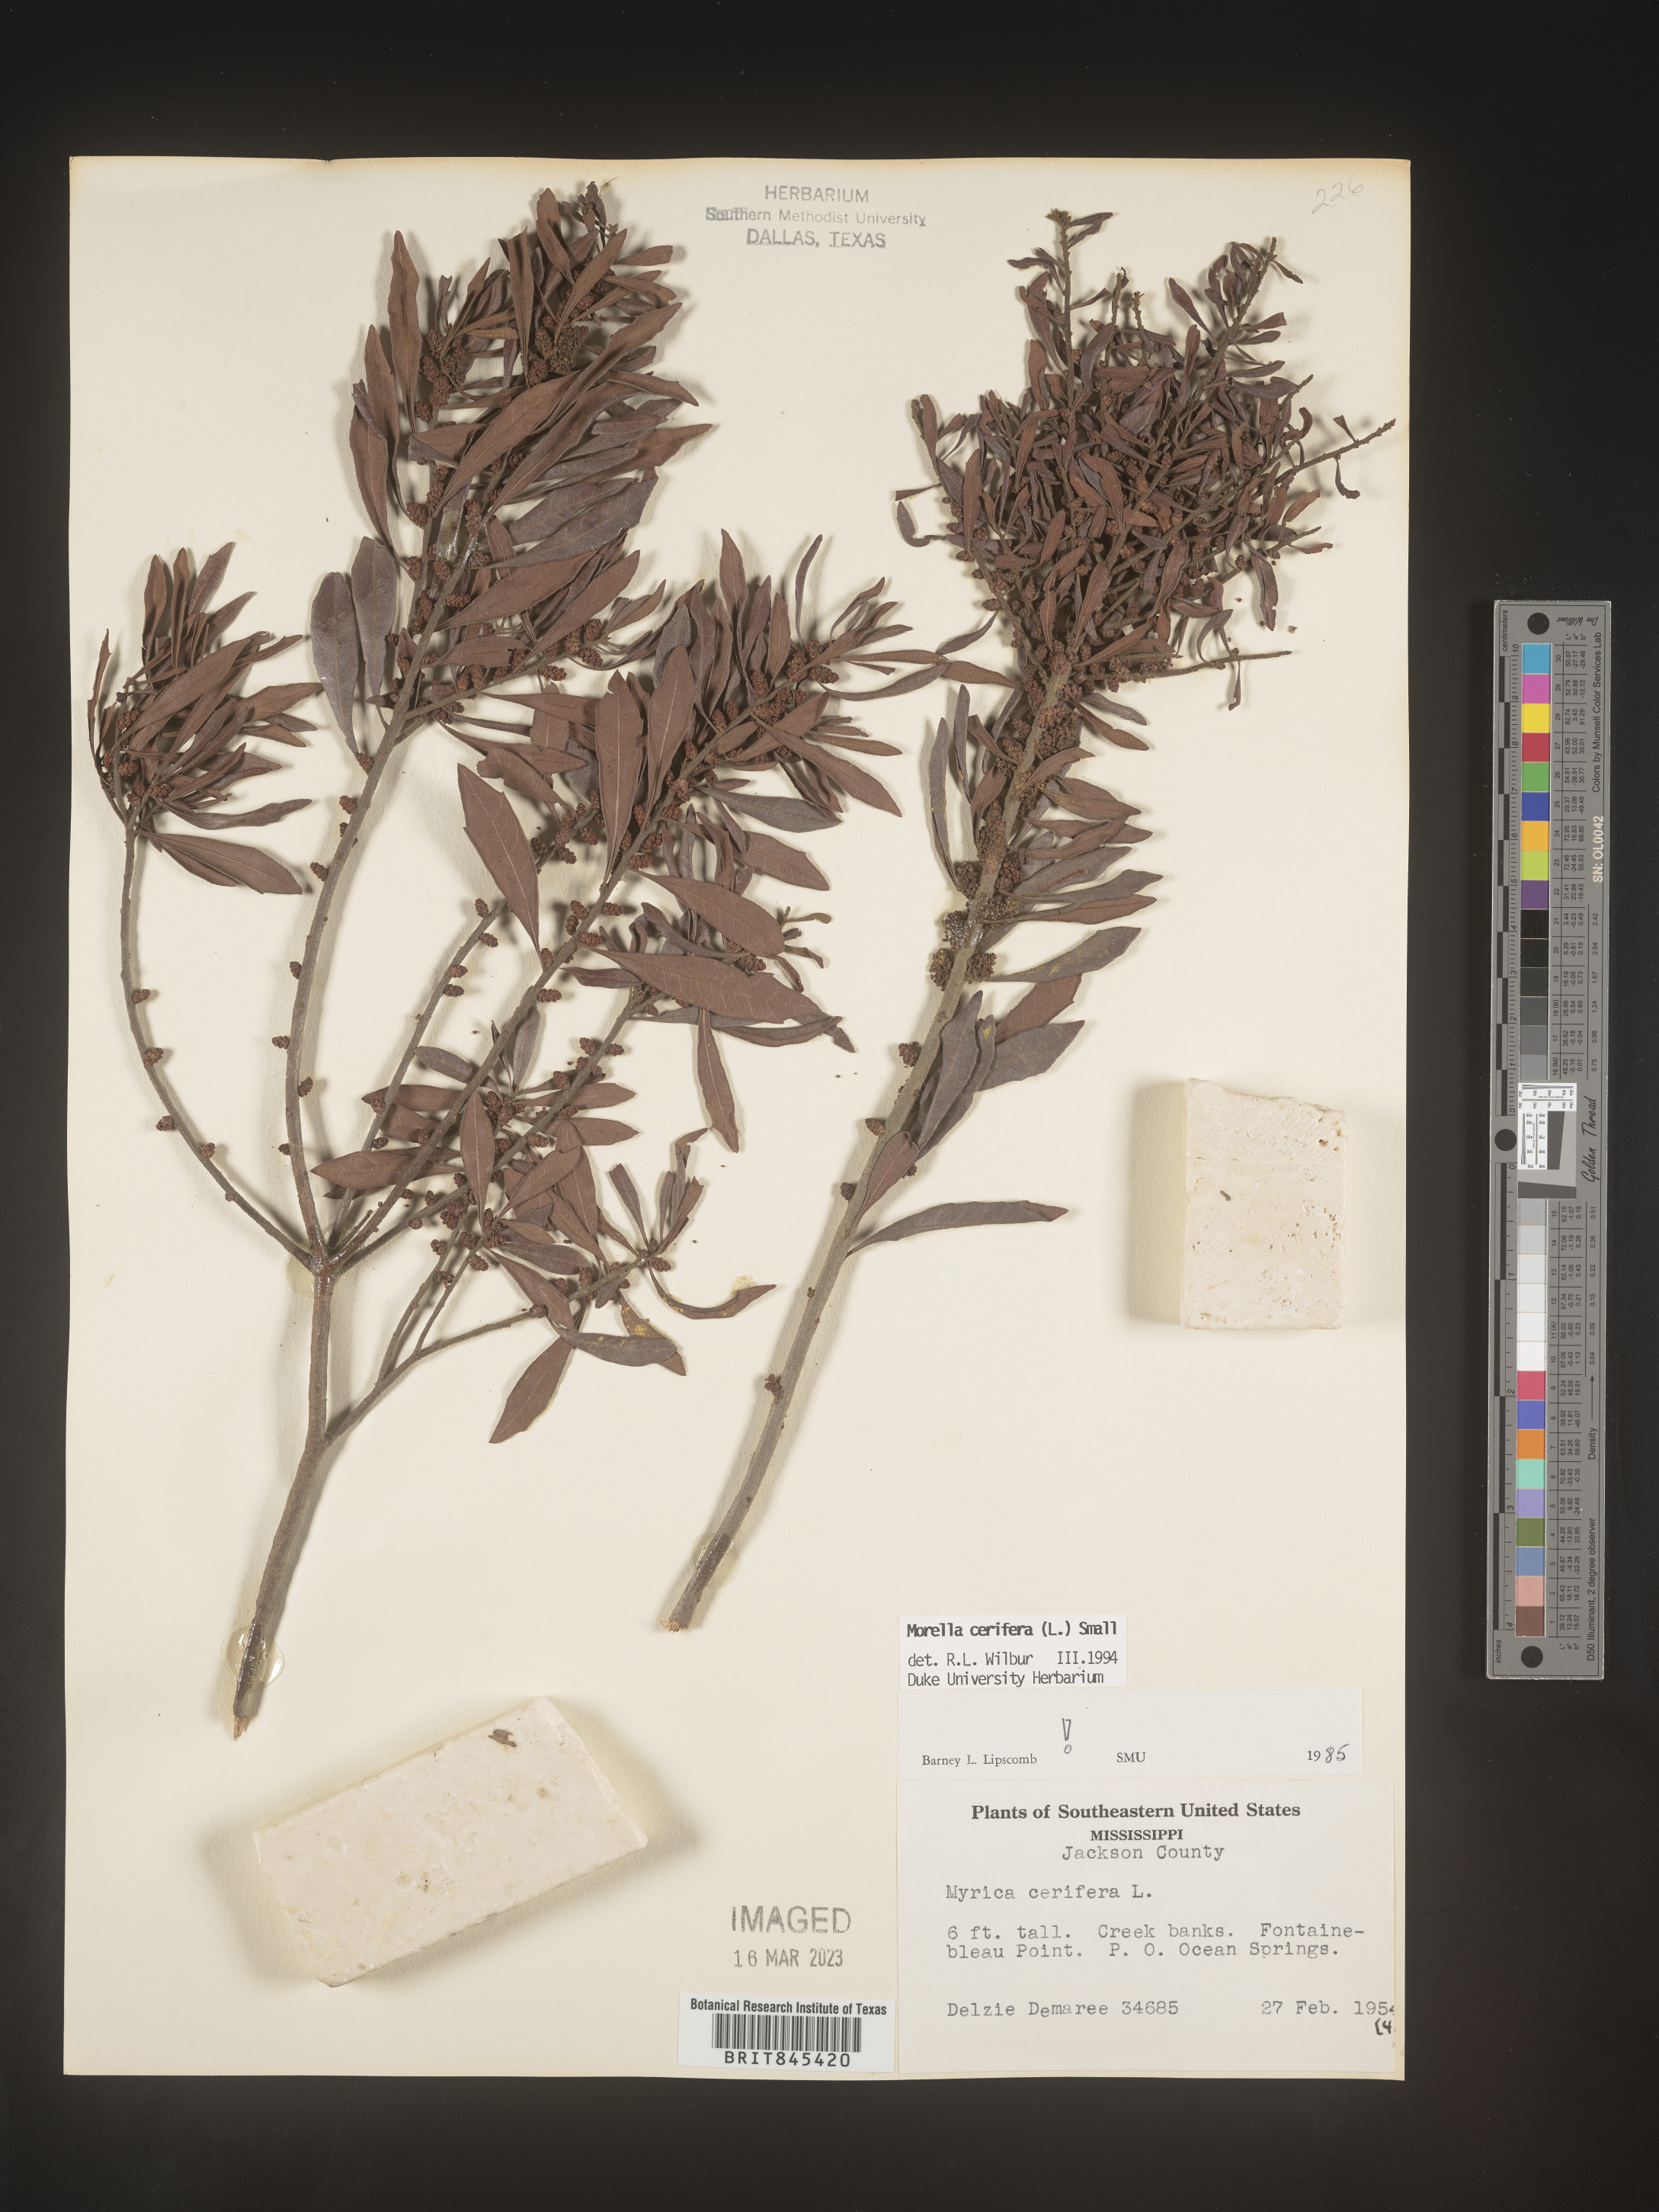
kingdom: Plantae
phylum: Tracheophyta
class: Magnoliopsida
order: Fagales
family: Myricaceae
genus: Morella
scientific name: Morella cerifera
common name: Wax myrtle
